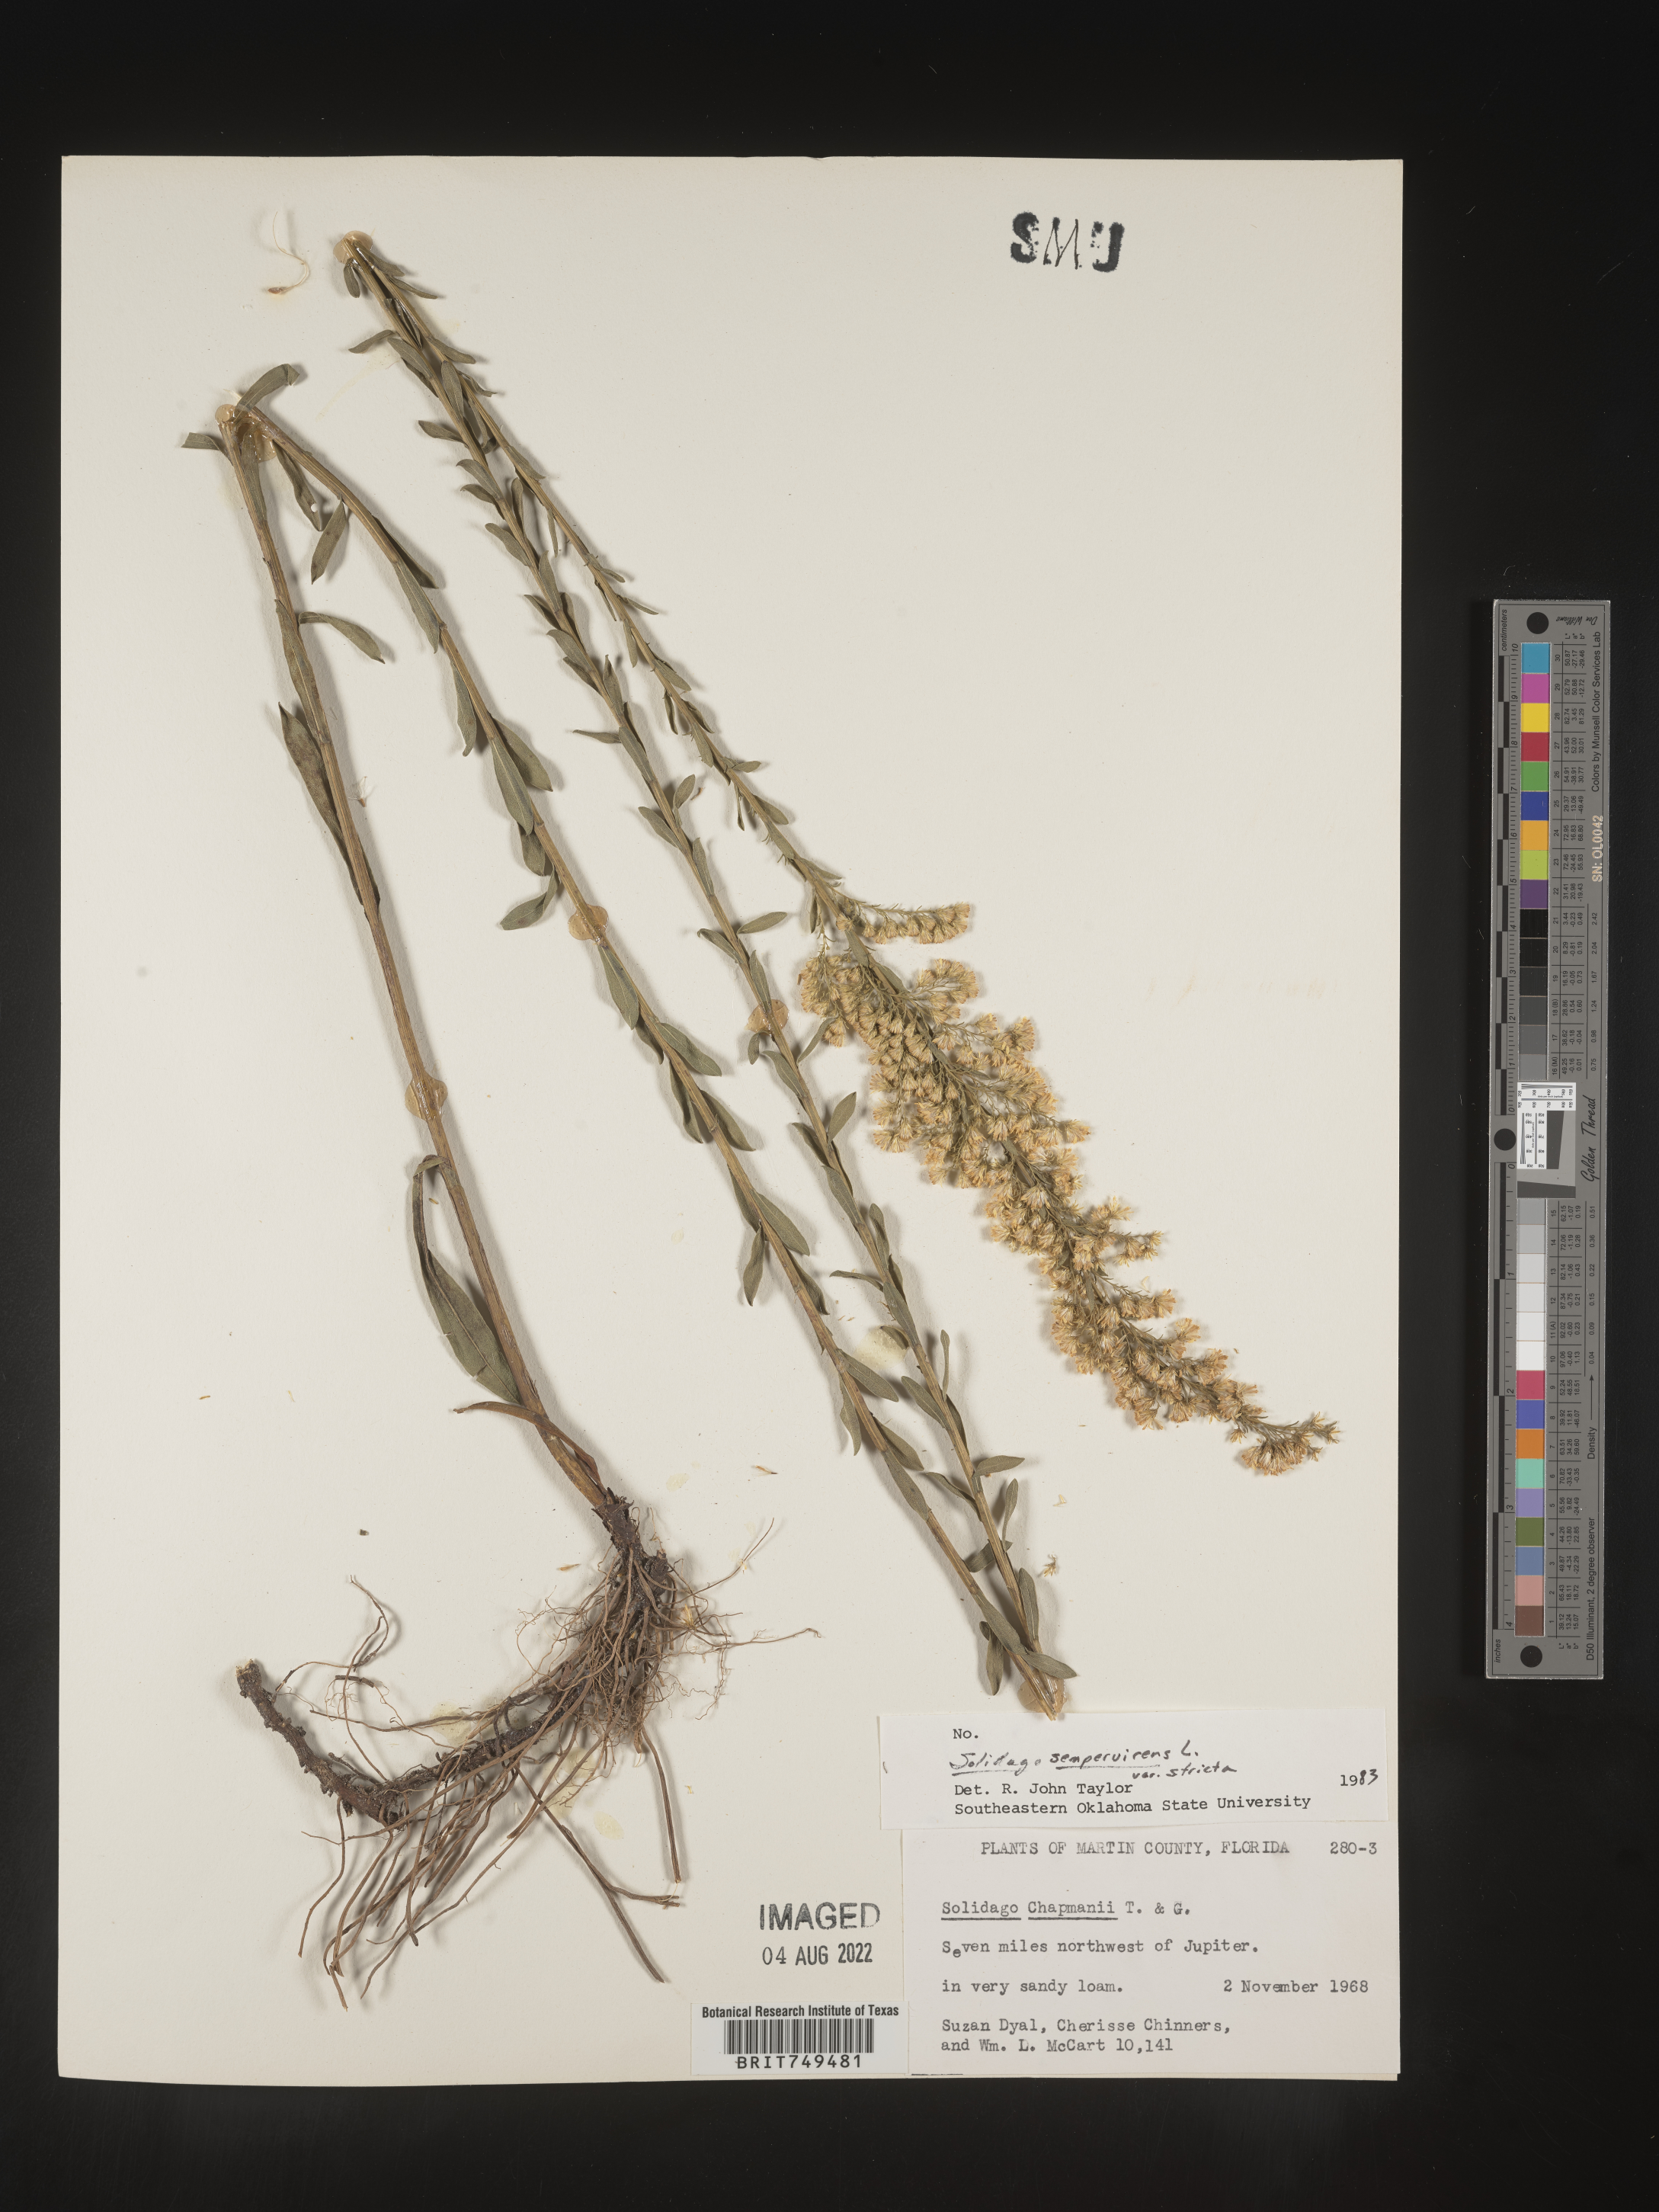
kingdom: Plantae
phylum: Tracheophyta
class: Magnoliopsida
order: Asterales
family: Asteraceae
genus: Solidago
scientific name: Solidago stricta
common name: Pine barren bog goldenrod
